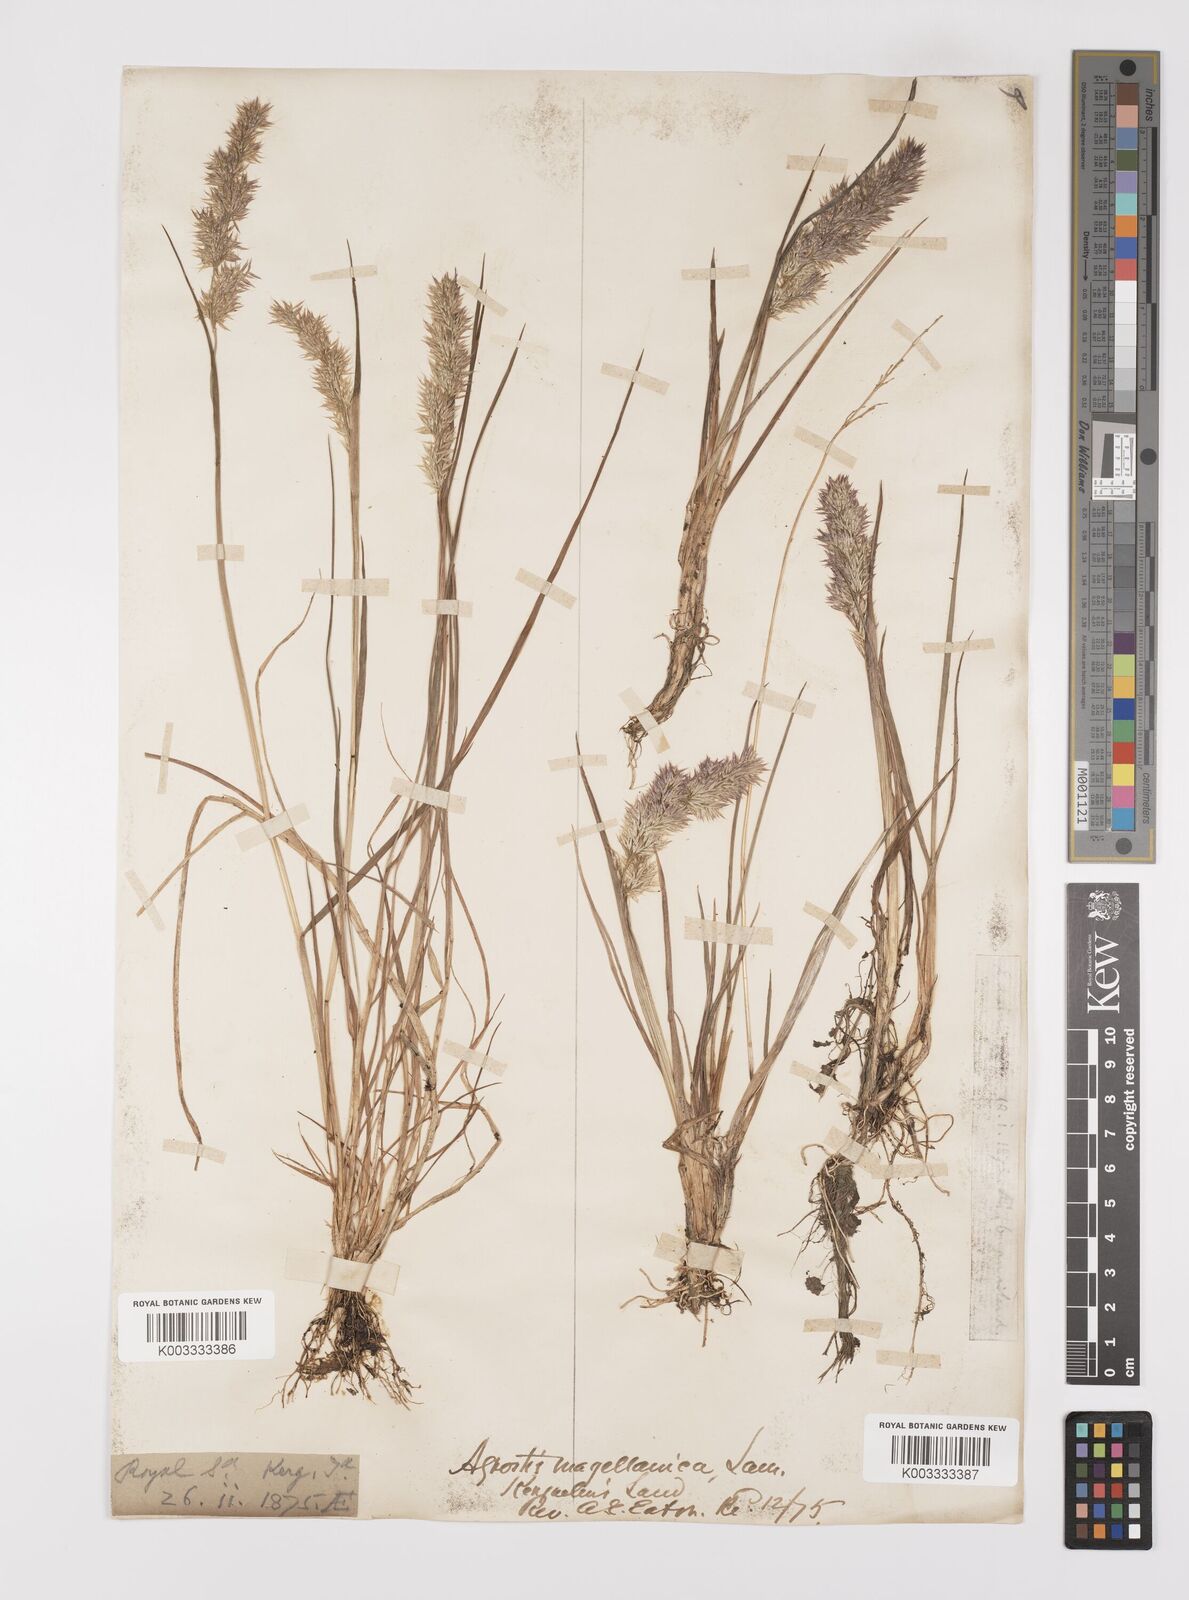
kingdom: Plantae
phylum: Tracheophyta
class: Liliopsida
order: Poales
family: Poaceae
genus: Polypogon
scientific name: Polypogon magellanicus
